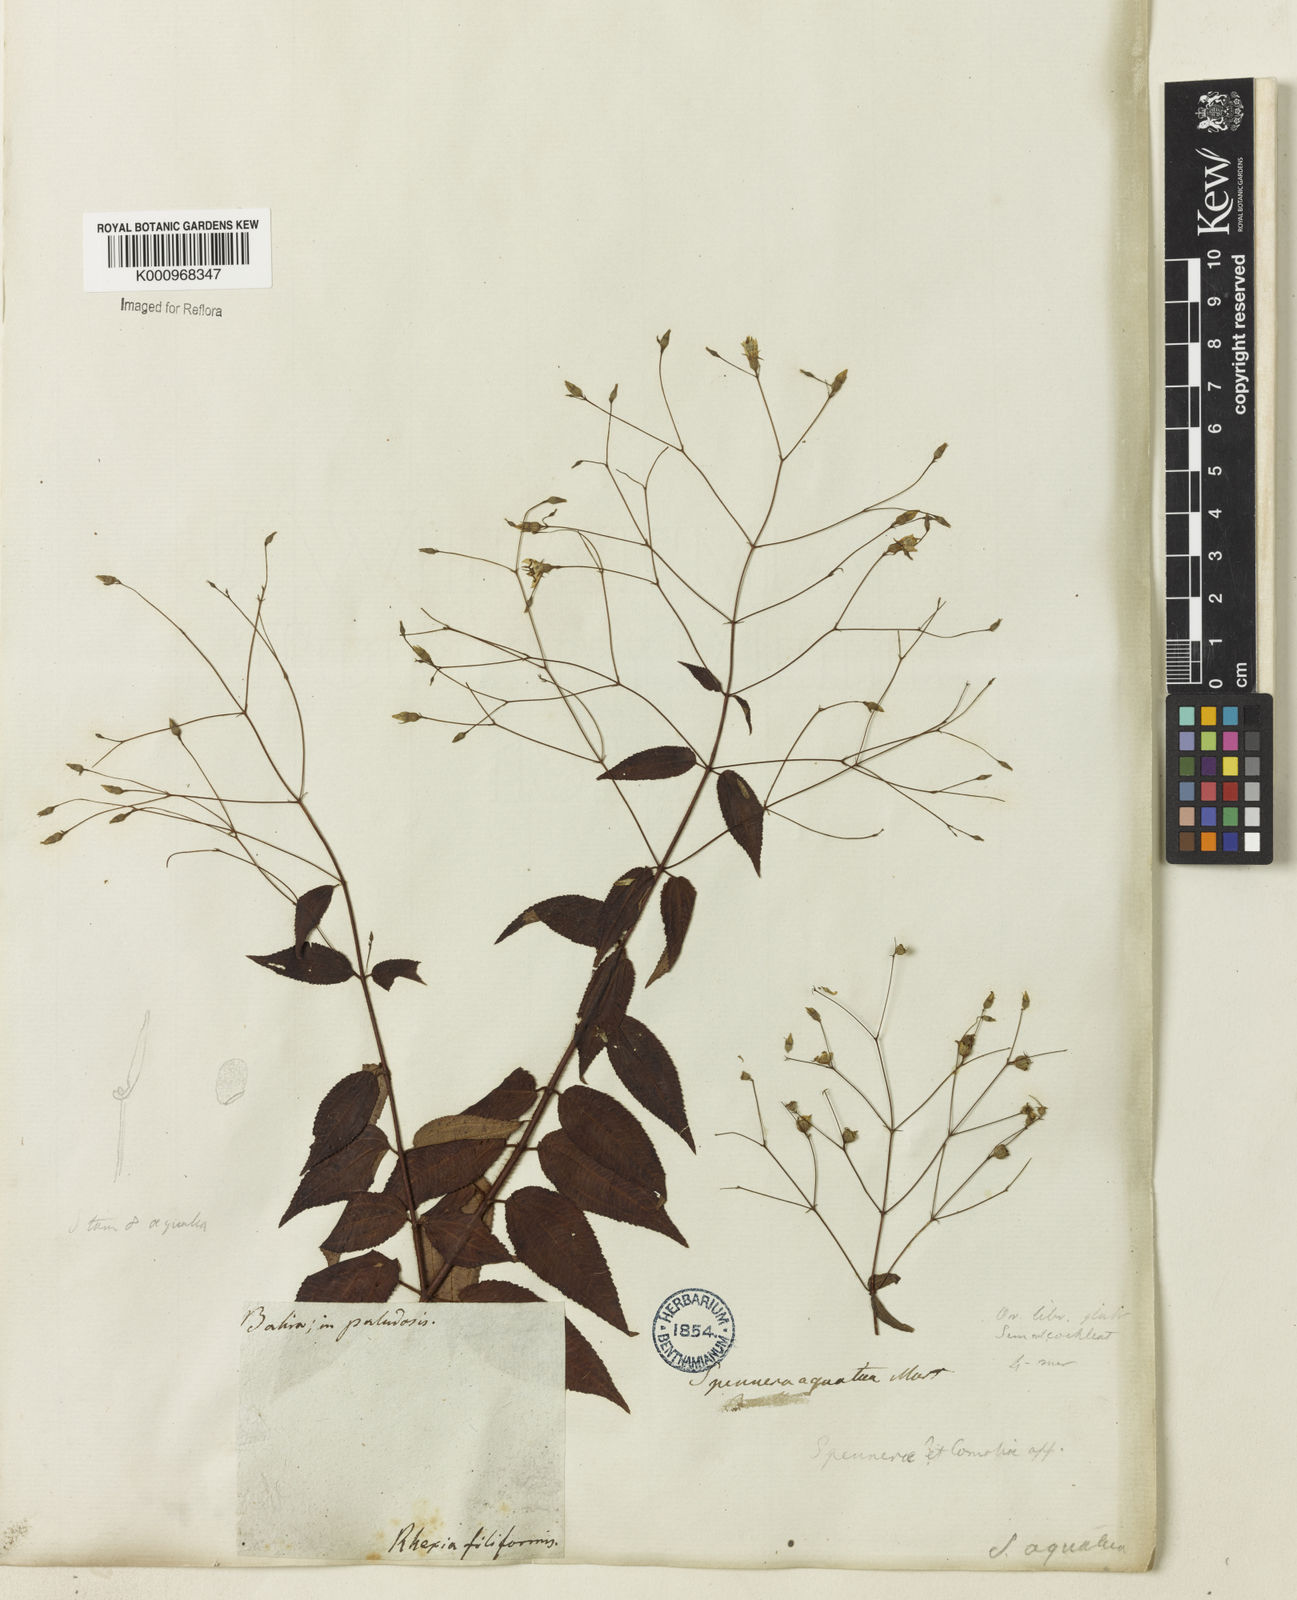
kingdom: Plantae
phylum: Tracheophyta
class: Magnoliopsida
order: Myrtales
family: Melastomataceae
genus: Nepsera
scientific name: Nepsera aquatica
